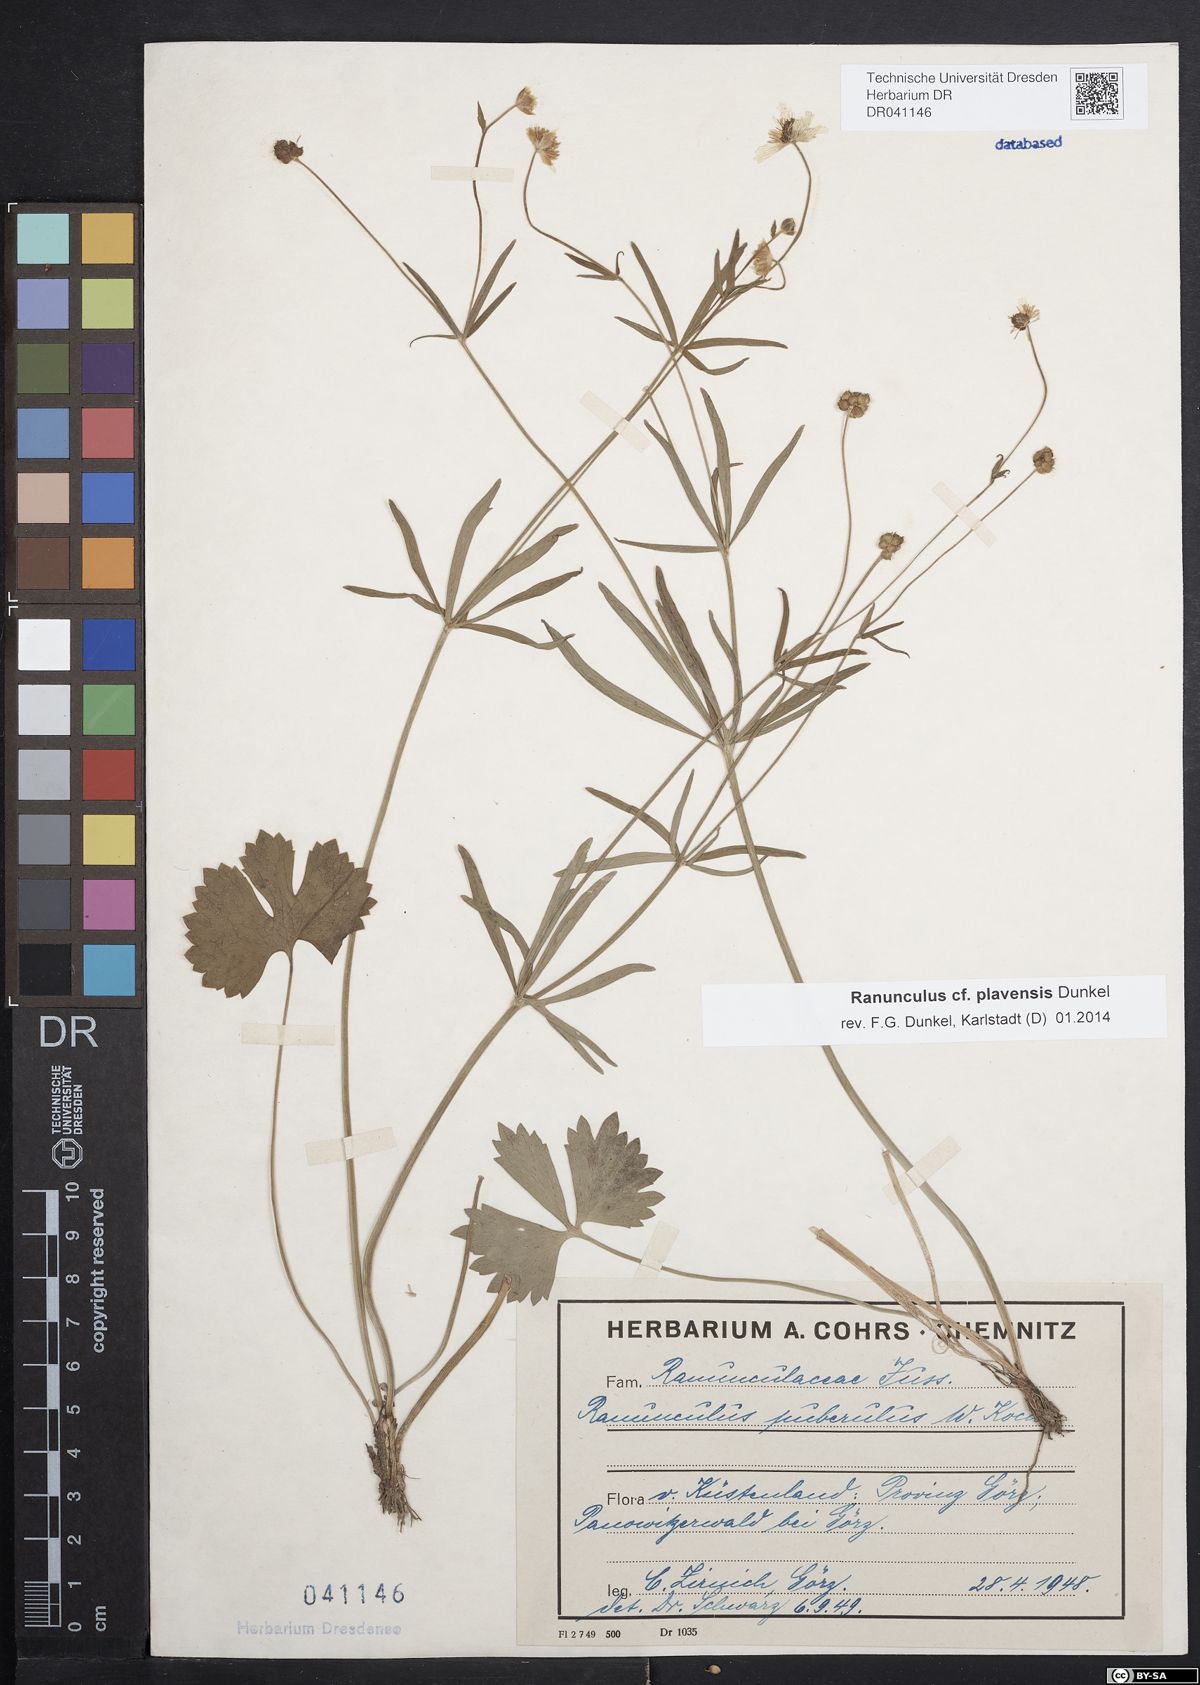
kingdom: Plantae
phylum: Tracheophyta
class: Magnoliopsida
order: Ranunculales
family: Ranunculaceae
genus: Ranunculus
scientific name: Ranunculus plavensis
